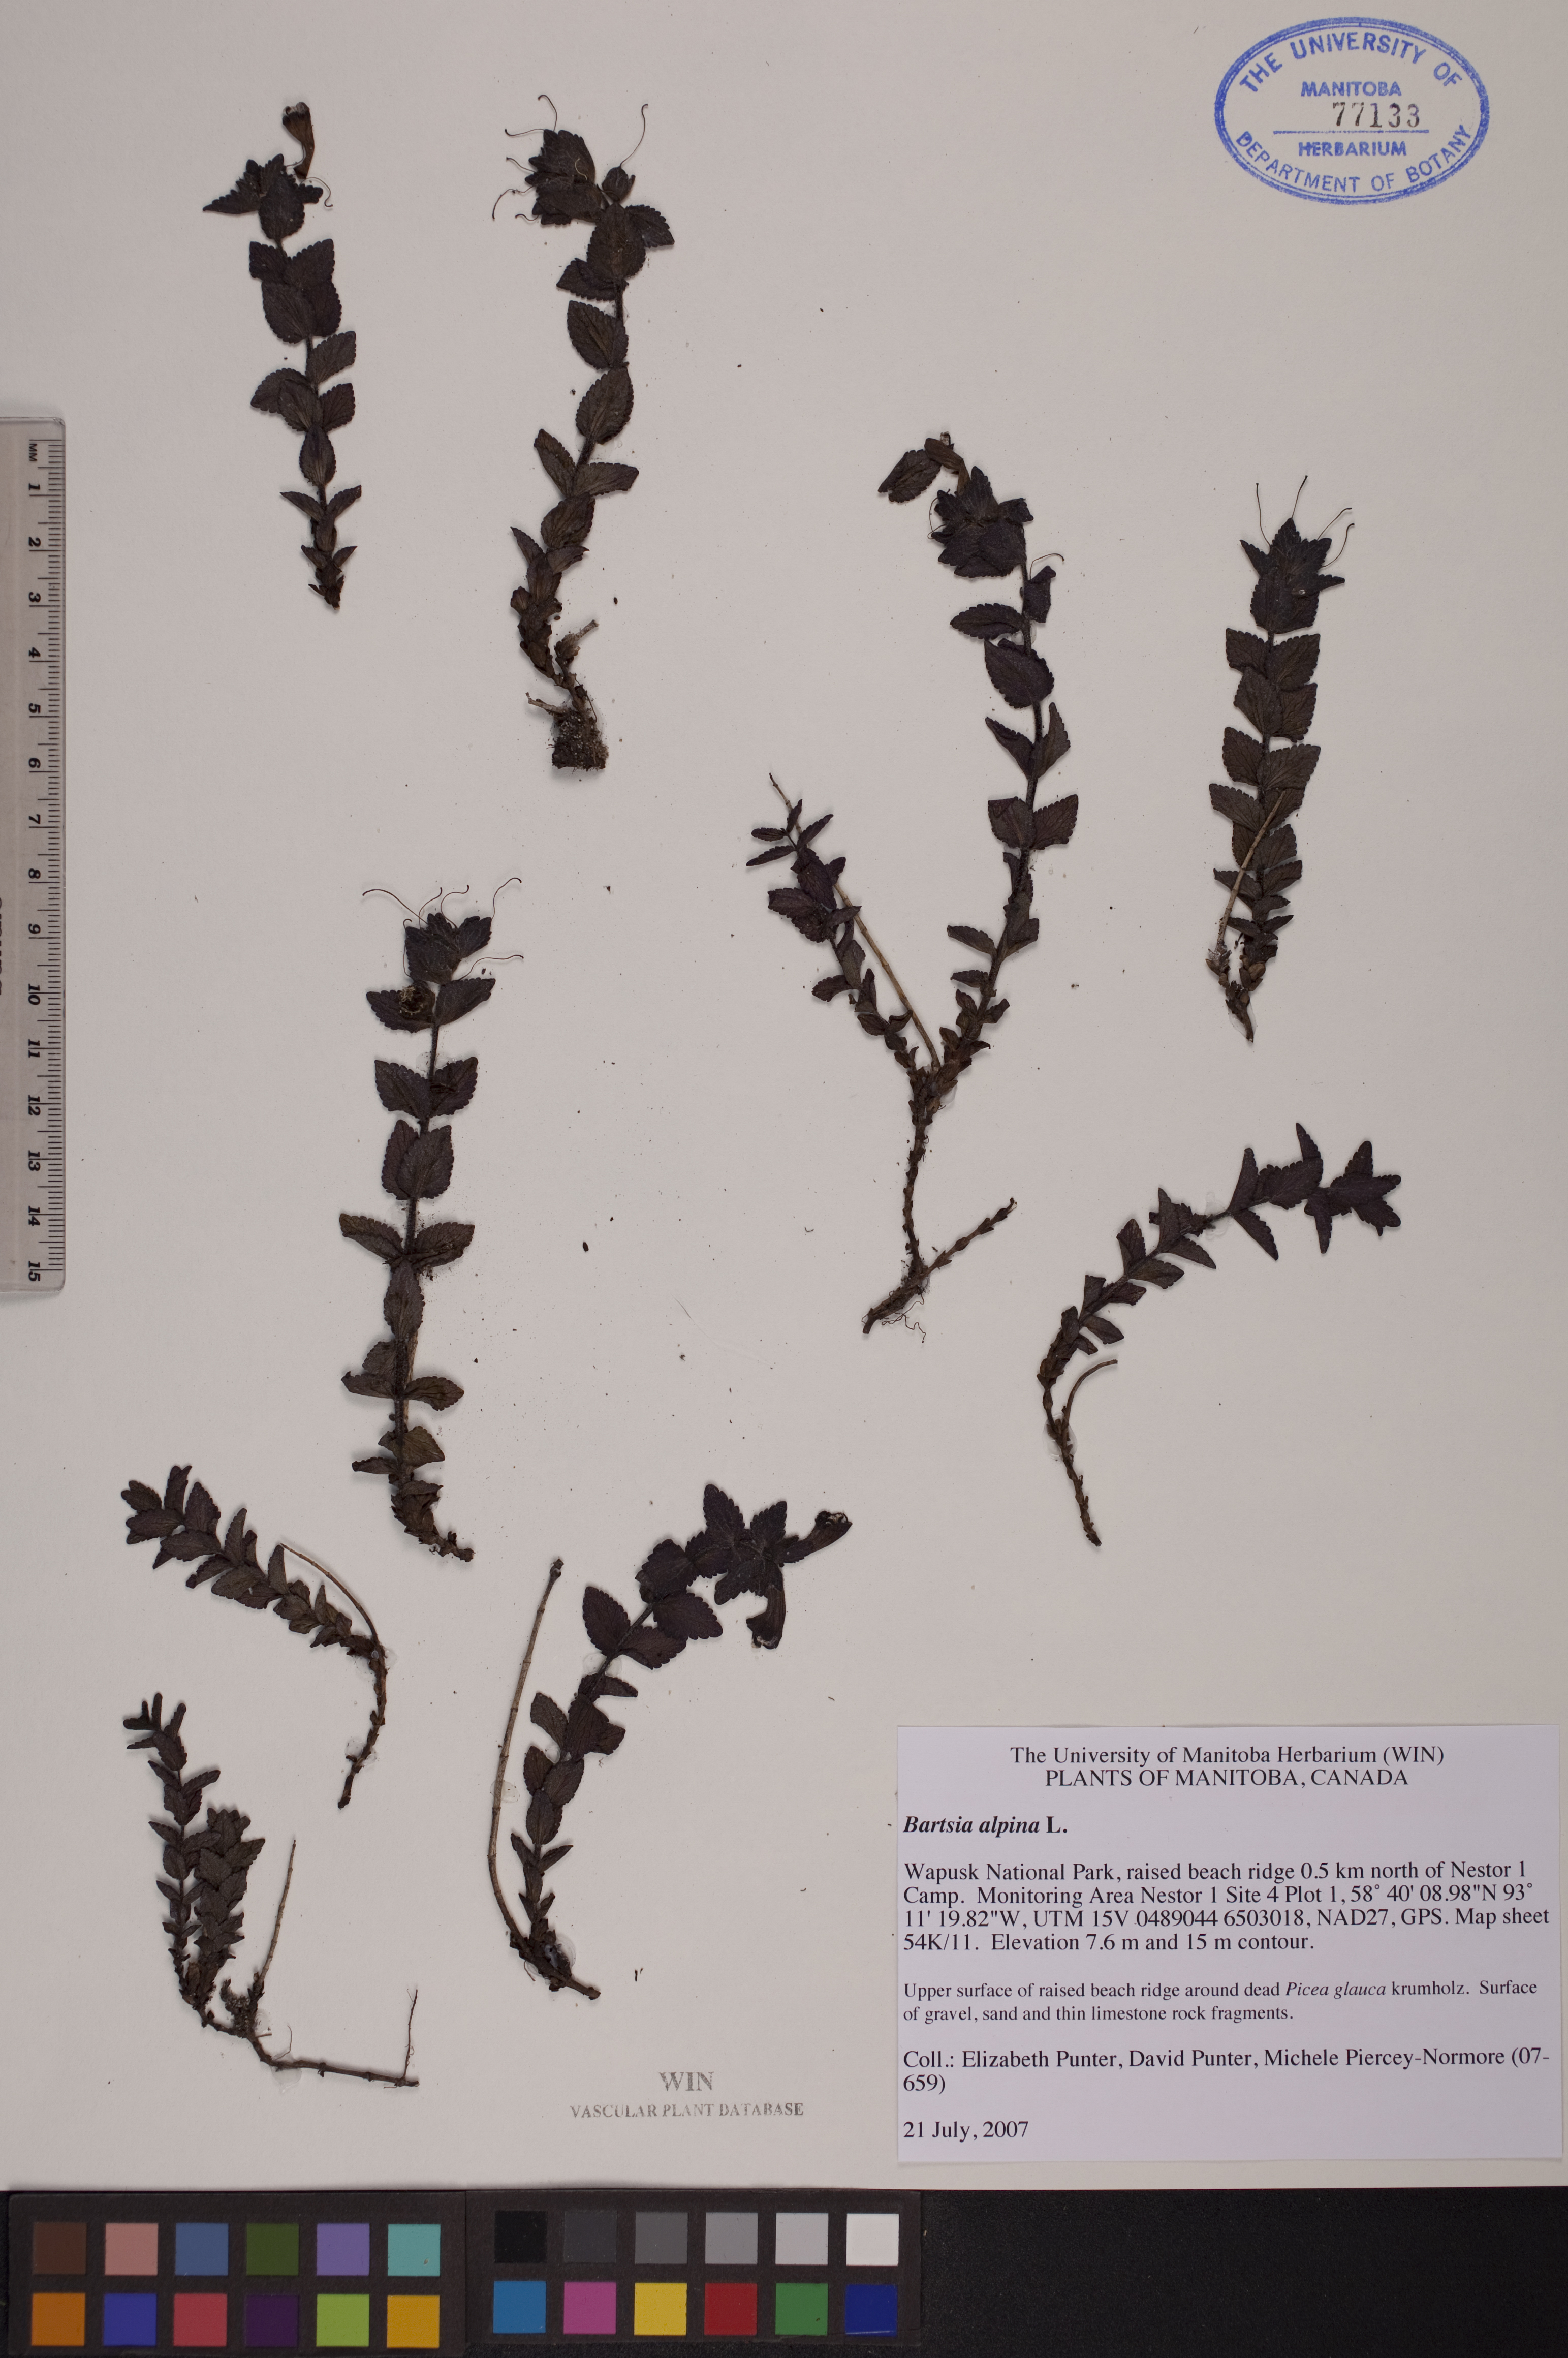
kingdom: Plantae
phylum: Tracheophyta
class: Magnoliopsida
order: Lamiales
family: Orobanchaceae
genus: Bartsia
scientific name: Bartsia alpina
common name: Alpine bartsia
